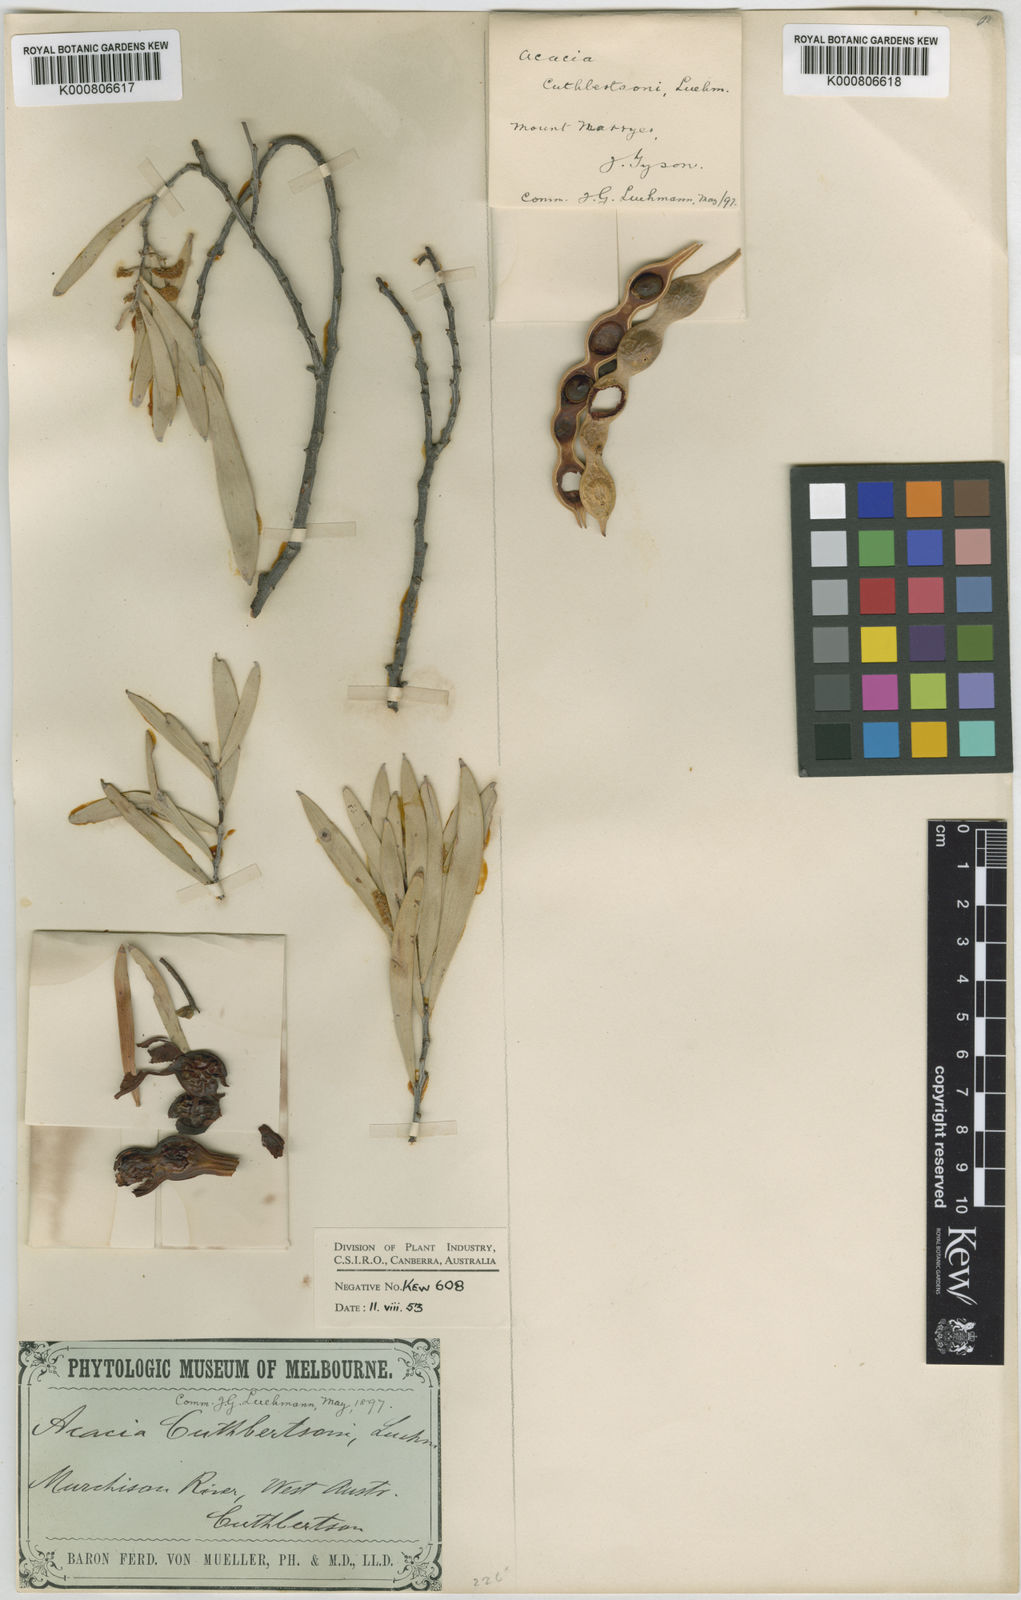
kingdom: Plantae
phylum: Tracheophyta
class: Magnoliopsida
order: Fabales
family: Fabaceae
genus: Acacia
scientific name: Acacia cuthbertsonii
